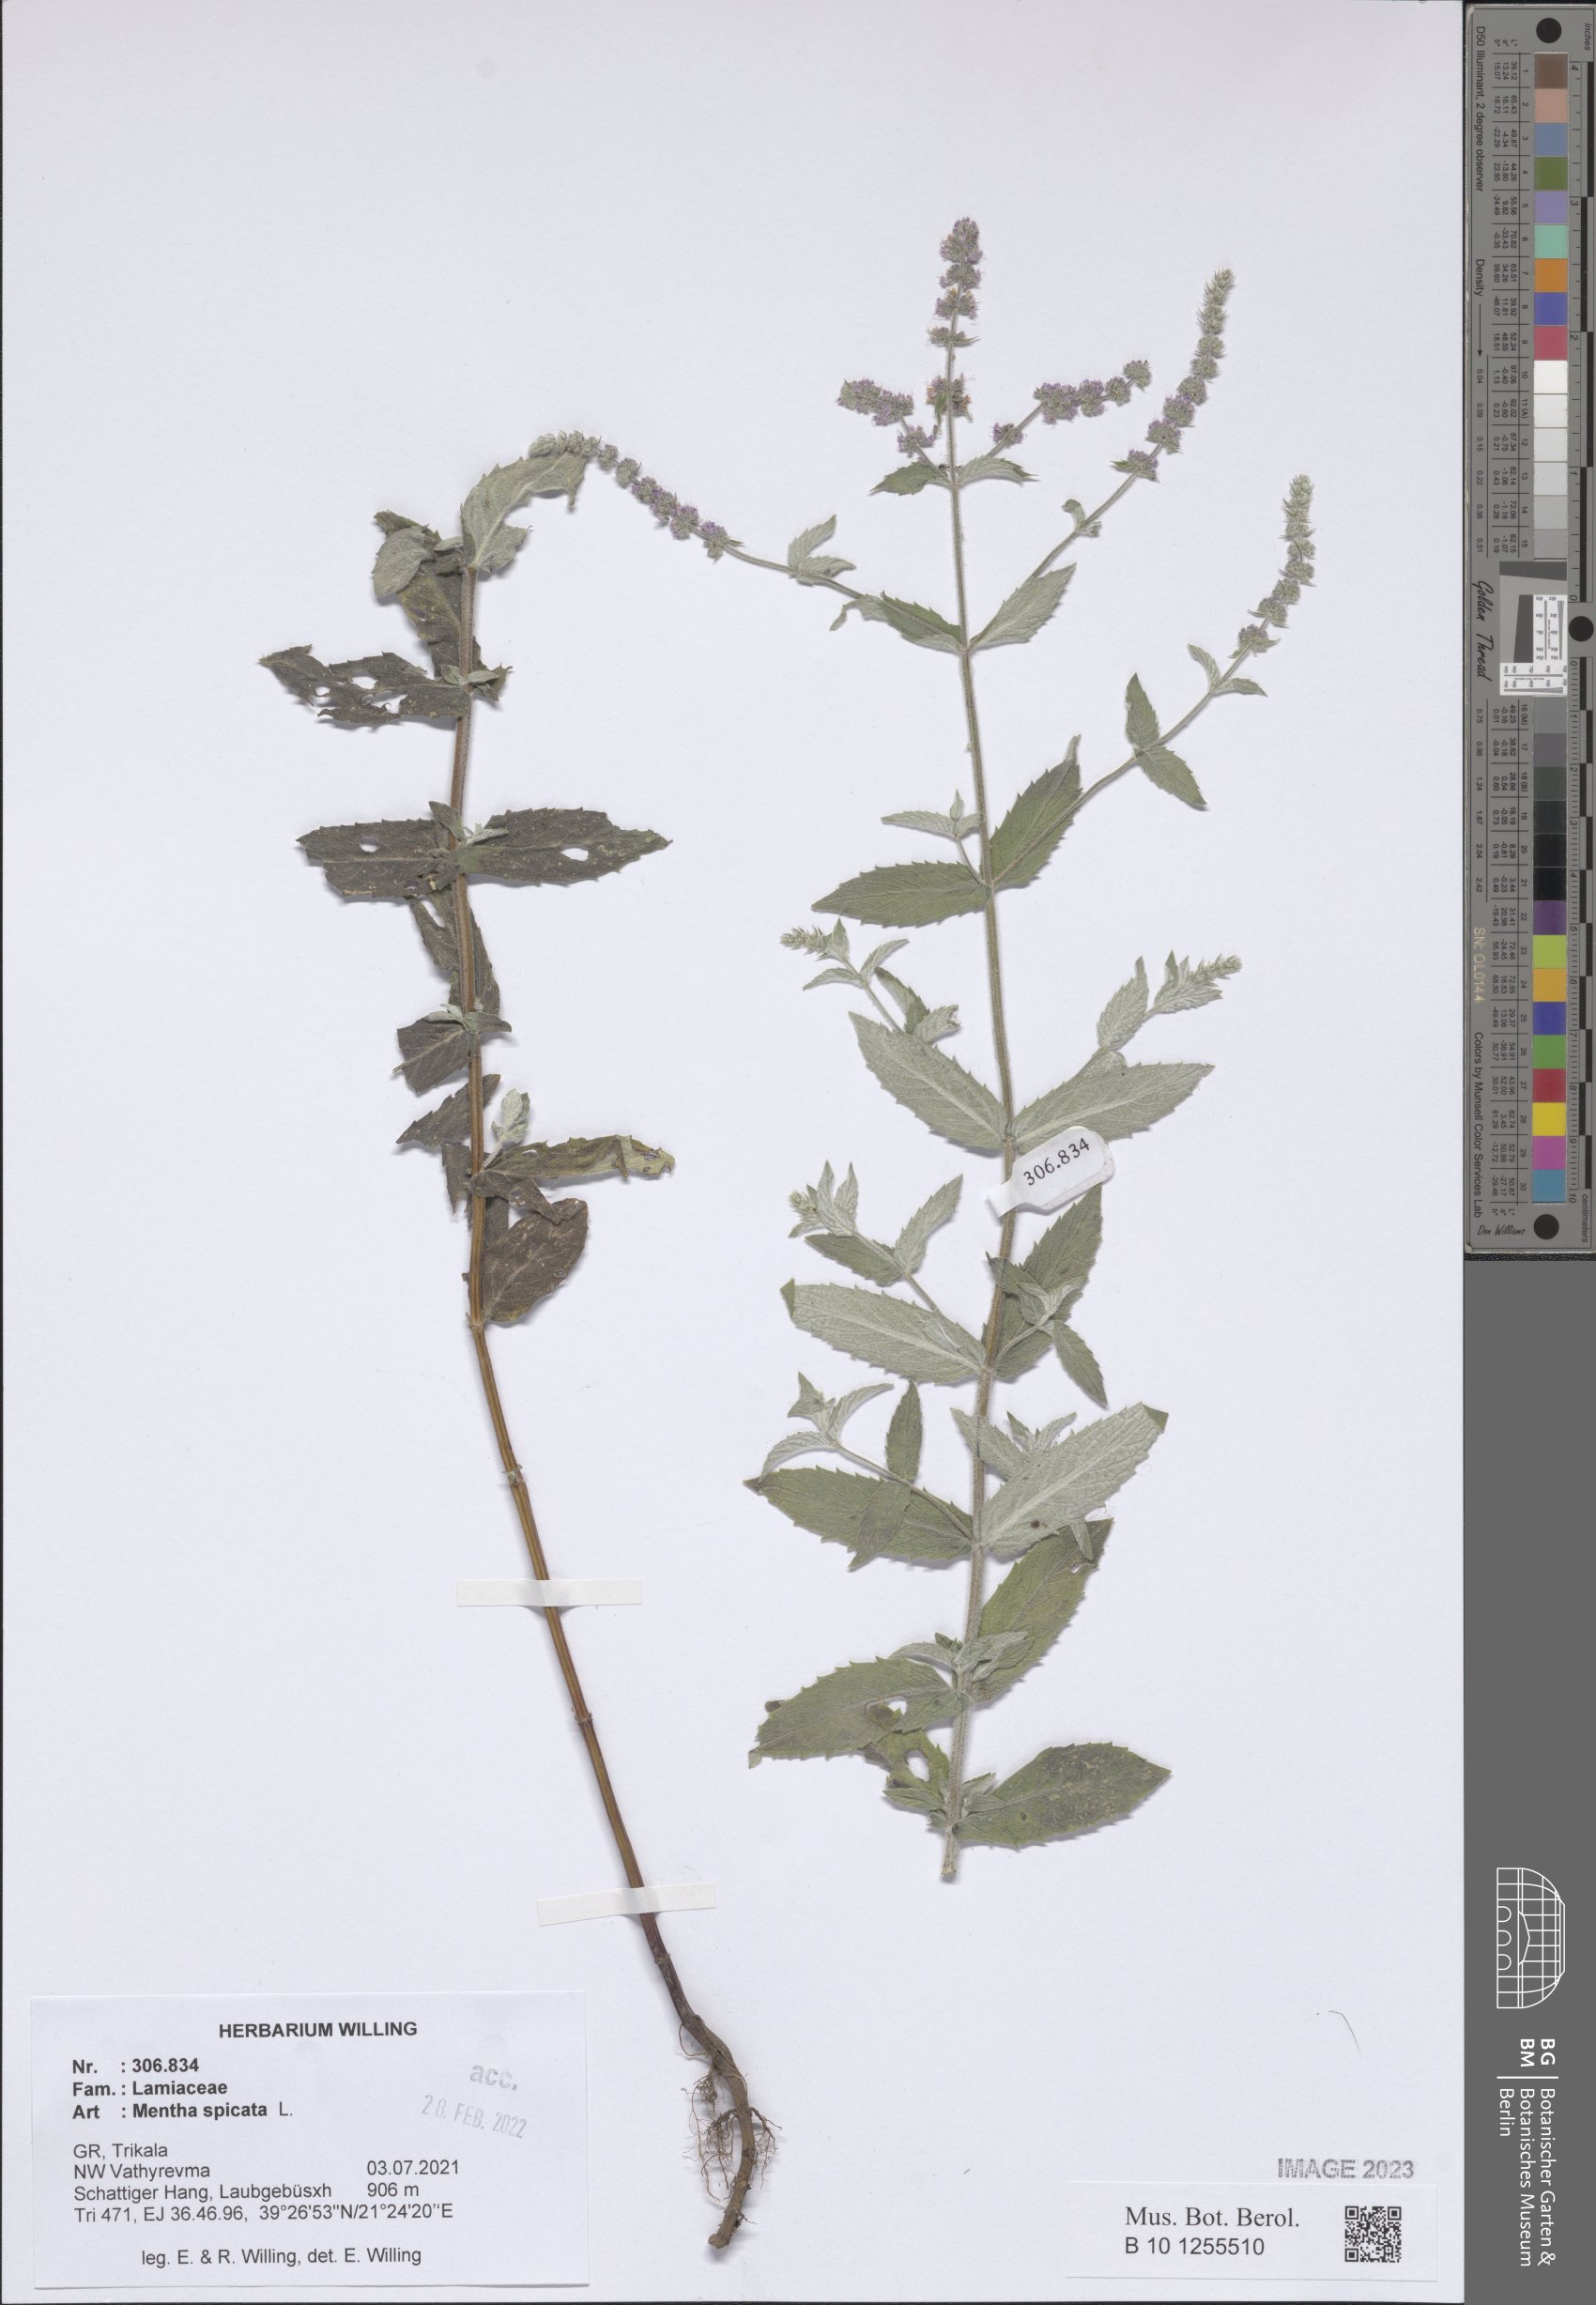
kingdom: Plantae
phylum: Tracheophyta
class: Magnoliopsida
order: Lamiales
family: Lamiaceae
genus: Mentha
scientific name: Mentha spicata
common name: Spearmint
